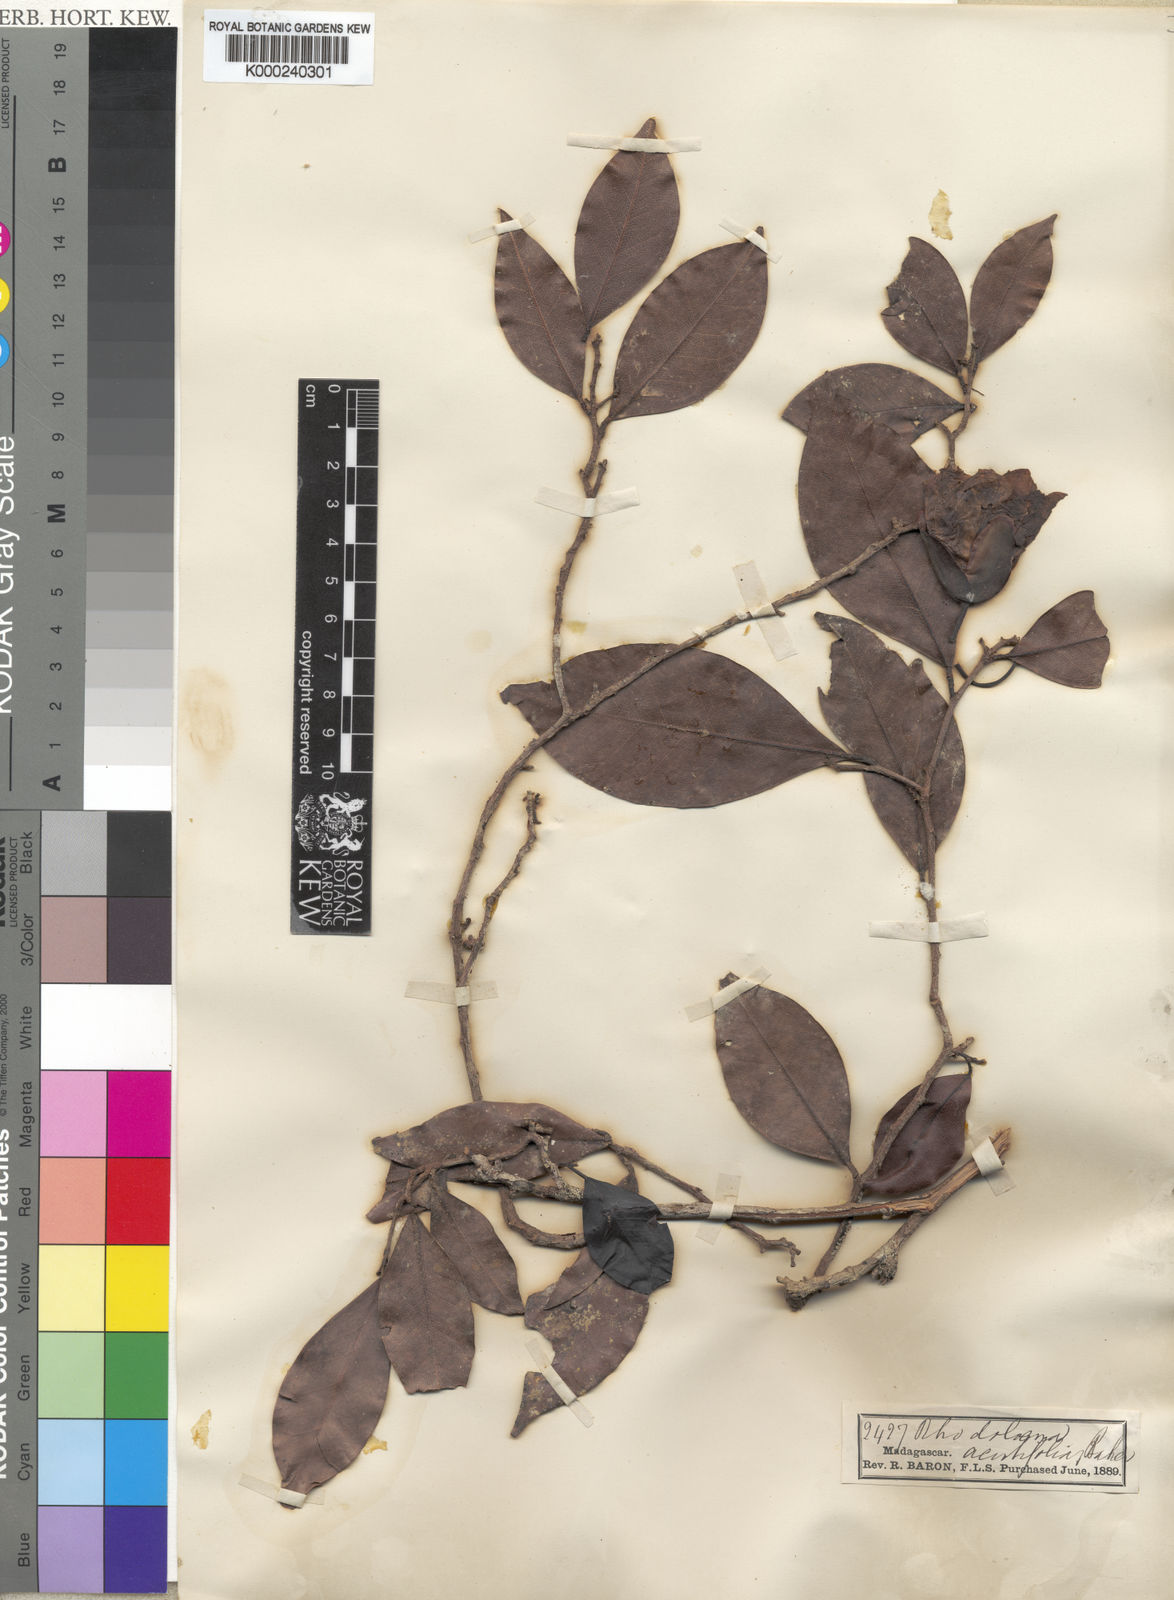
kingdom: Plantae
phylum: Tracheophyta
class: Magnoliopsida
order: Malvales
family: Sarcolaenaceae
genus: Rhodolaena
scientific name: Rhodolaena acutifolia
